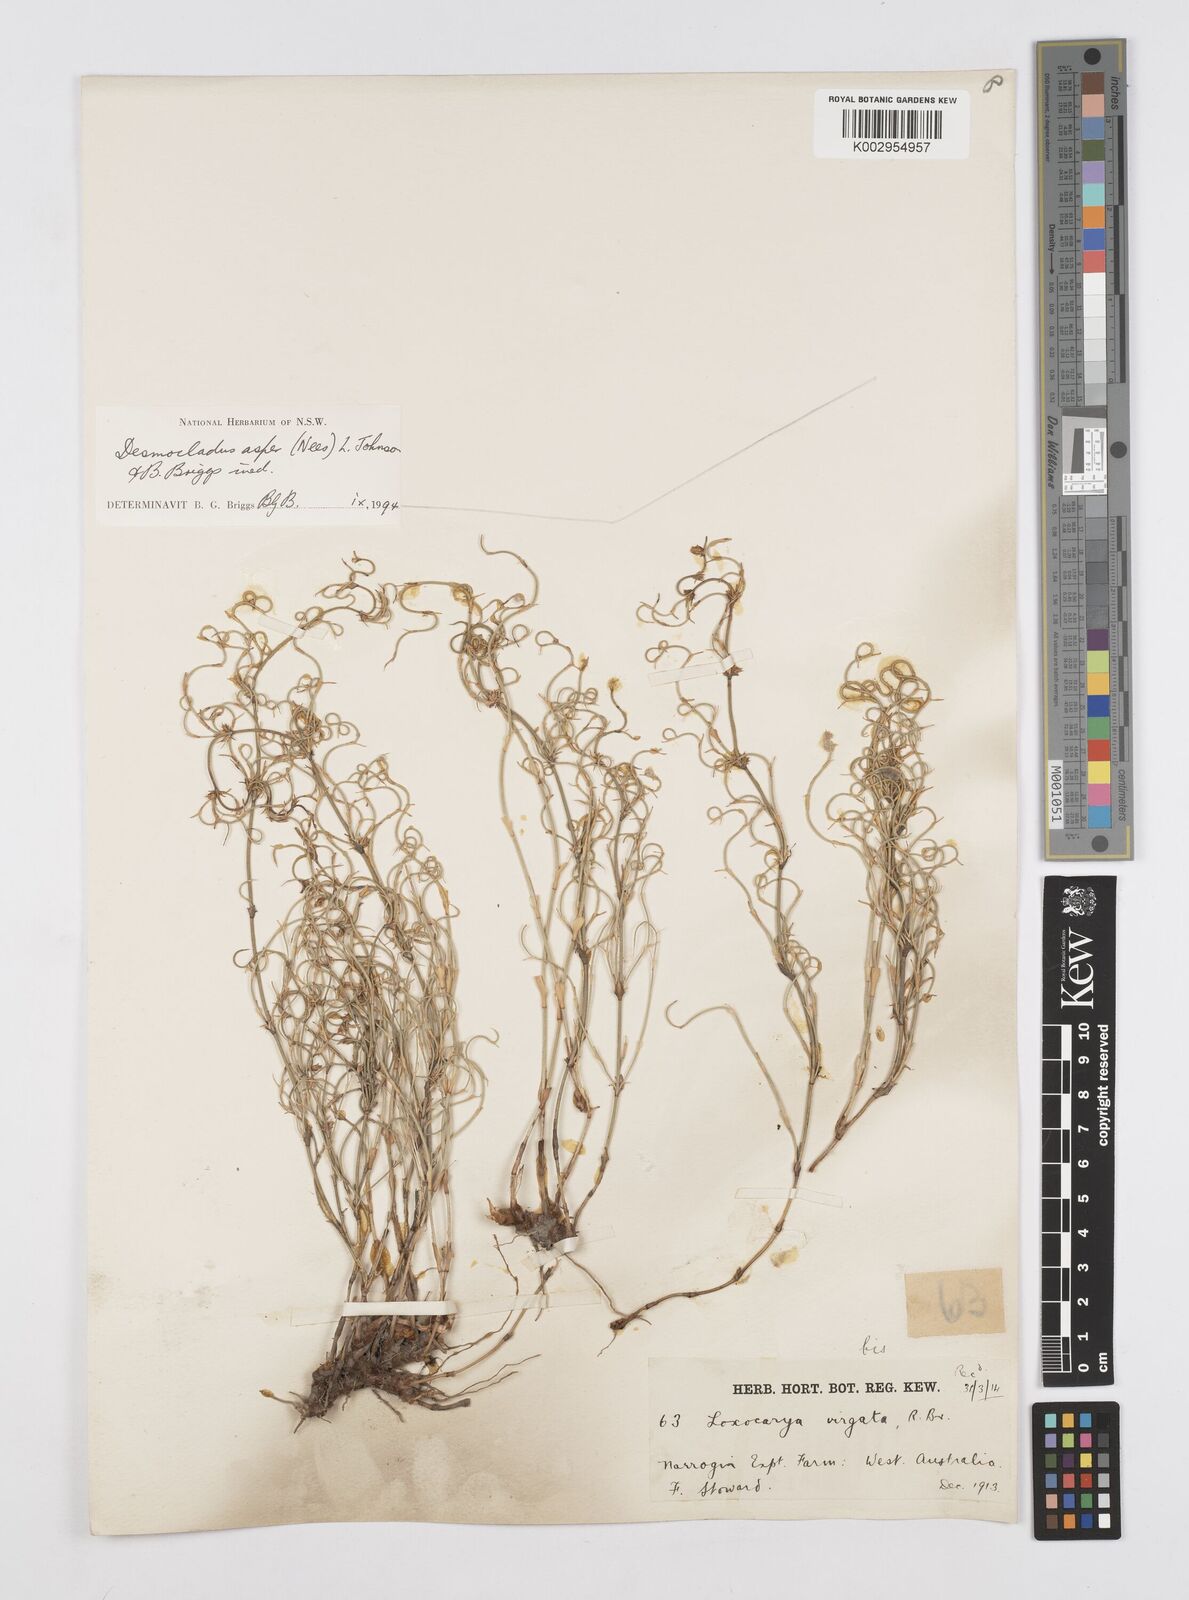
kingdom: Plantae
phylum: Tracheophyta
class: Liliopsida
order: Poales
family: Restionaceae
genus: Desmocladus
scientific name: Desmocladus asper
